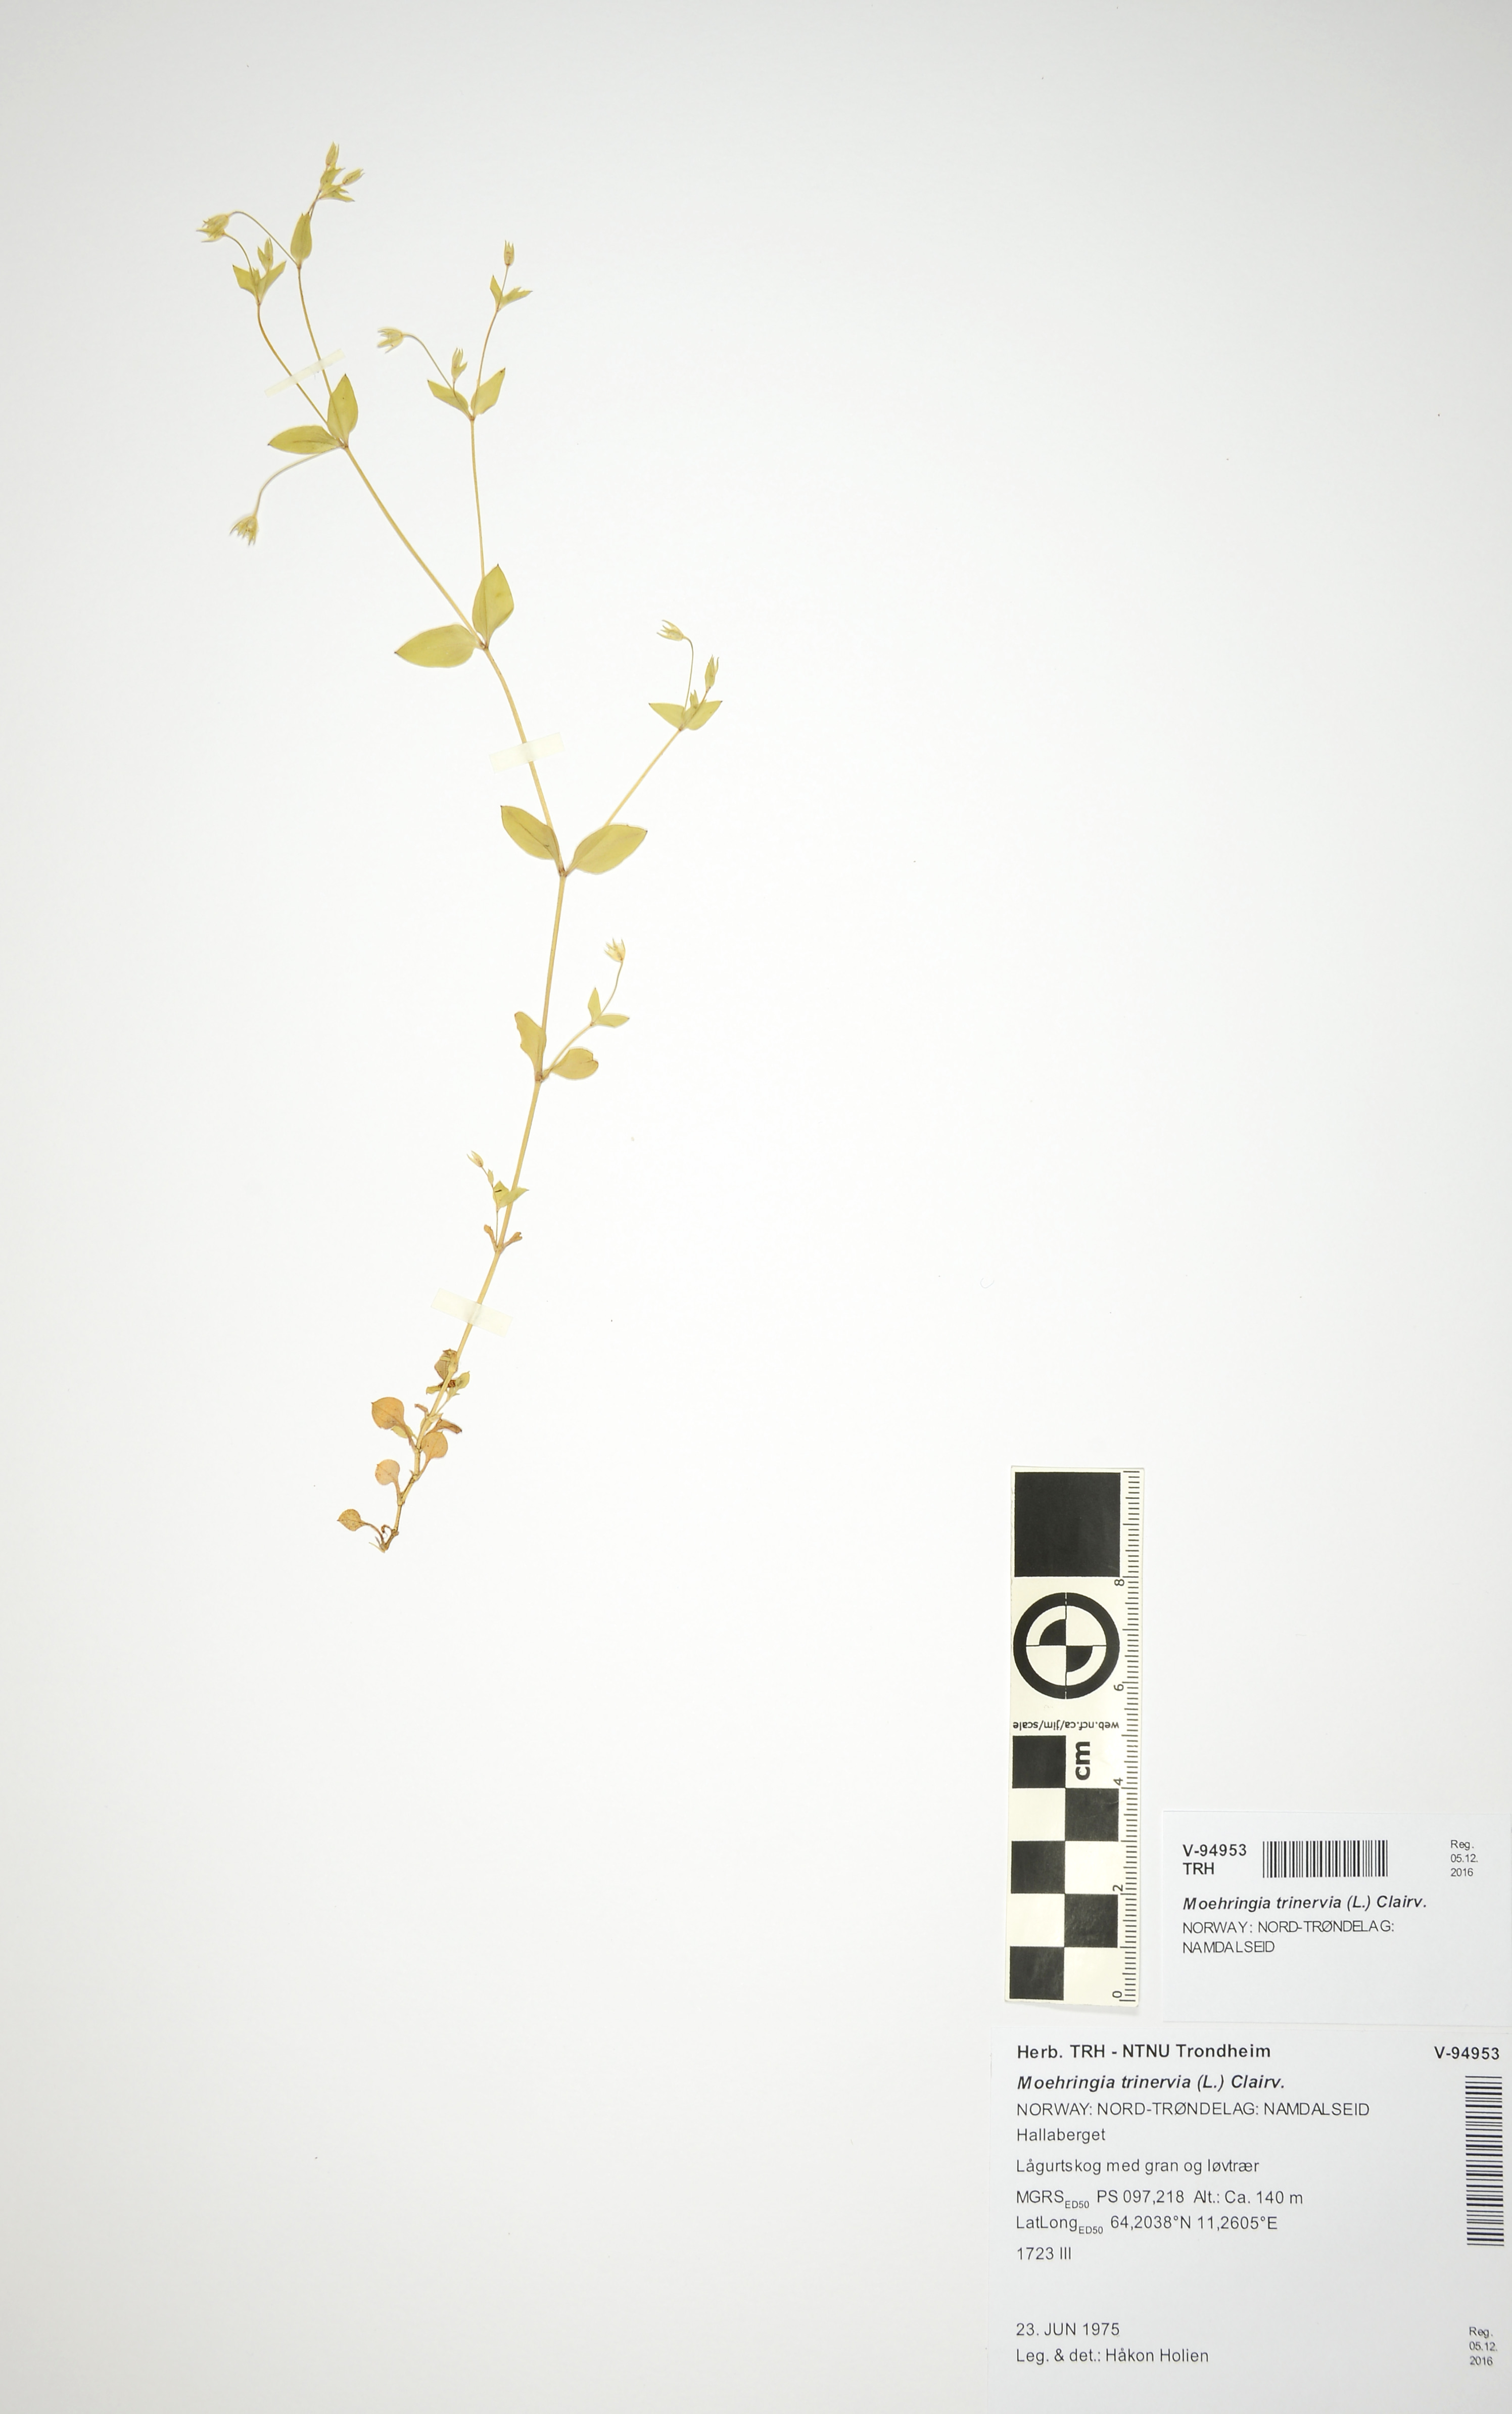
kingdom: Plantae
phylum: Tracheophyta
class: Magnoliopsida
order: Caryophyllales
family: Caryophyllaceae
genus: Moehringia
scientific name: Moehringia trinervia
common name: Three-nerved sandwort
